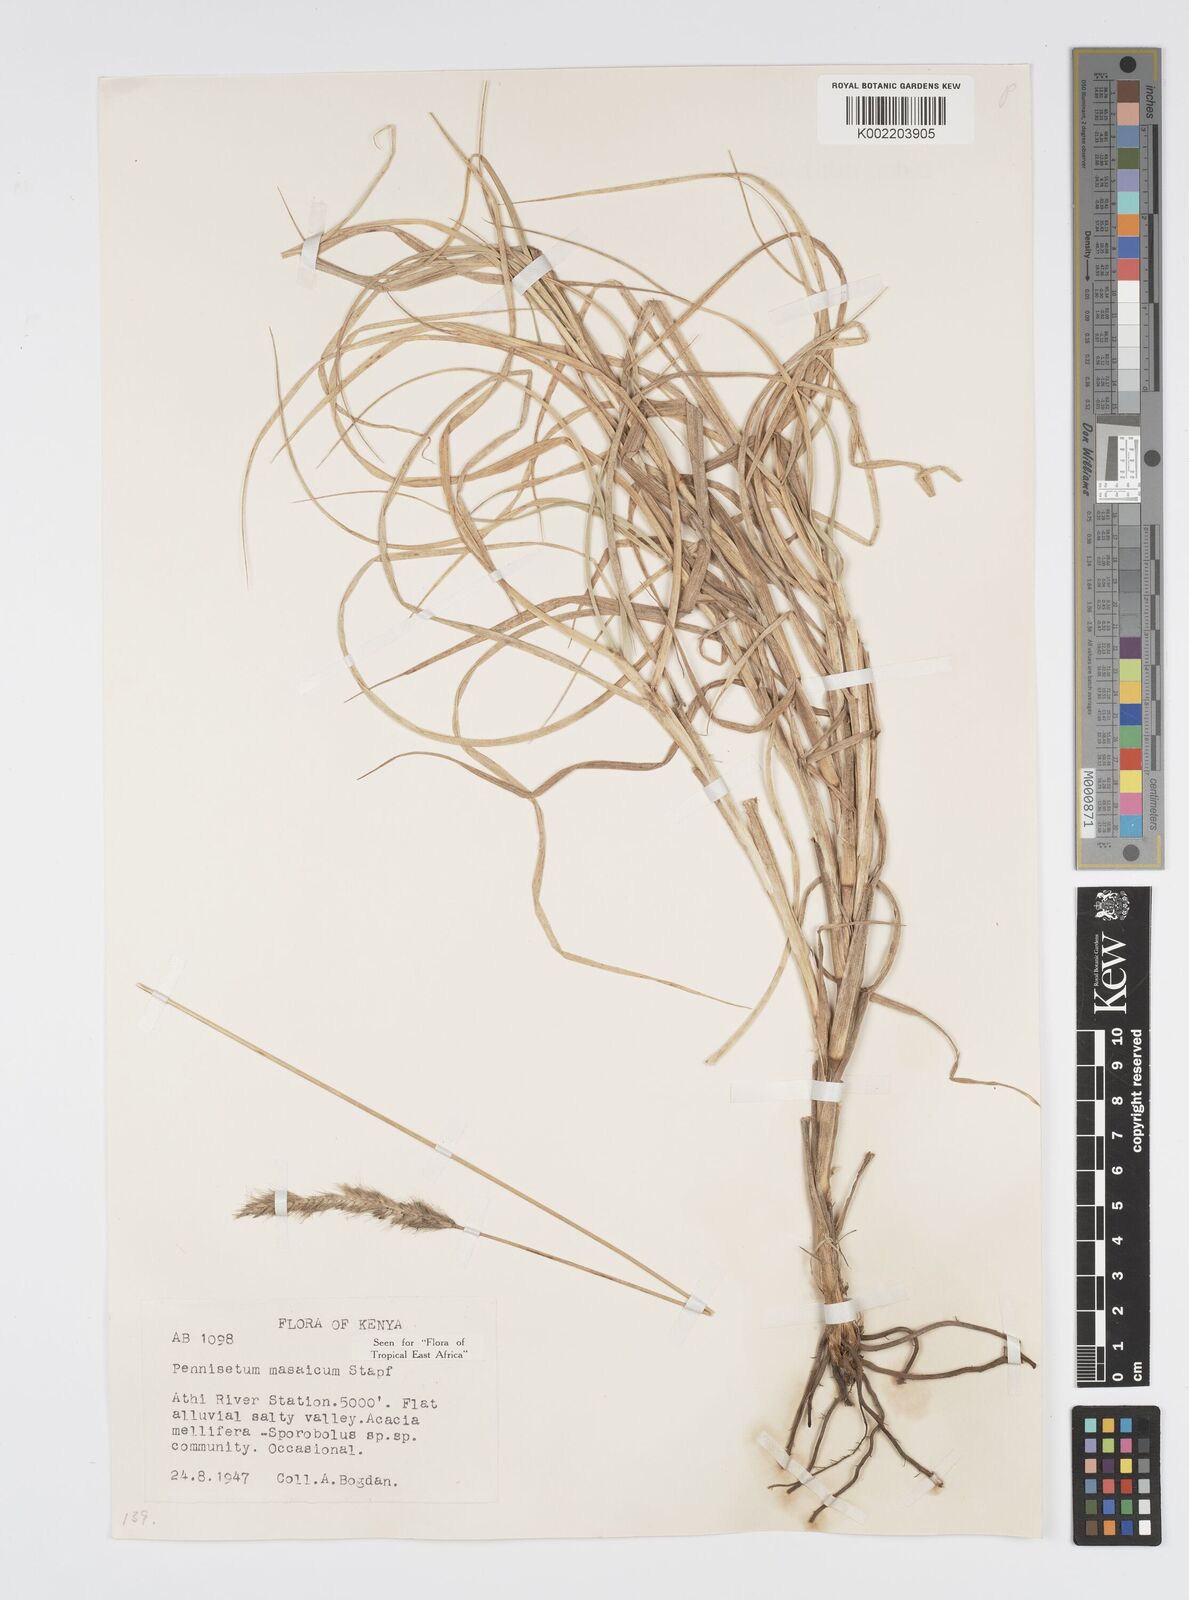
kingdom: Plantae
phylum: Tracheophyta
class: Liliopsida
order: Poales
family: Poaceae
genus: Cenchrus
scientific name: Cenchrus massaicus
